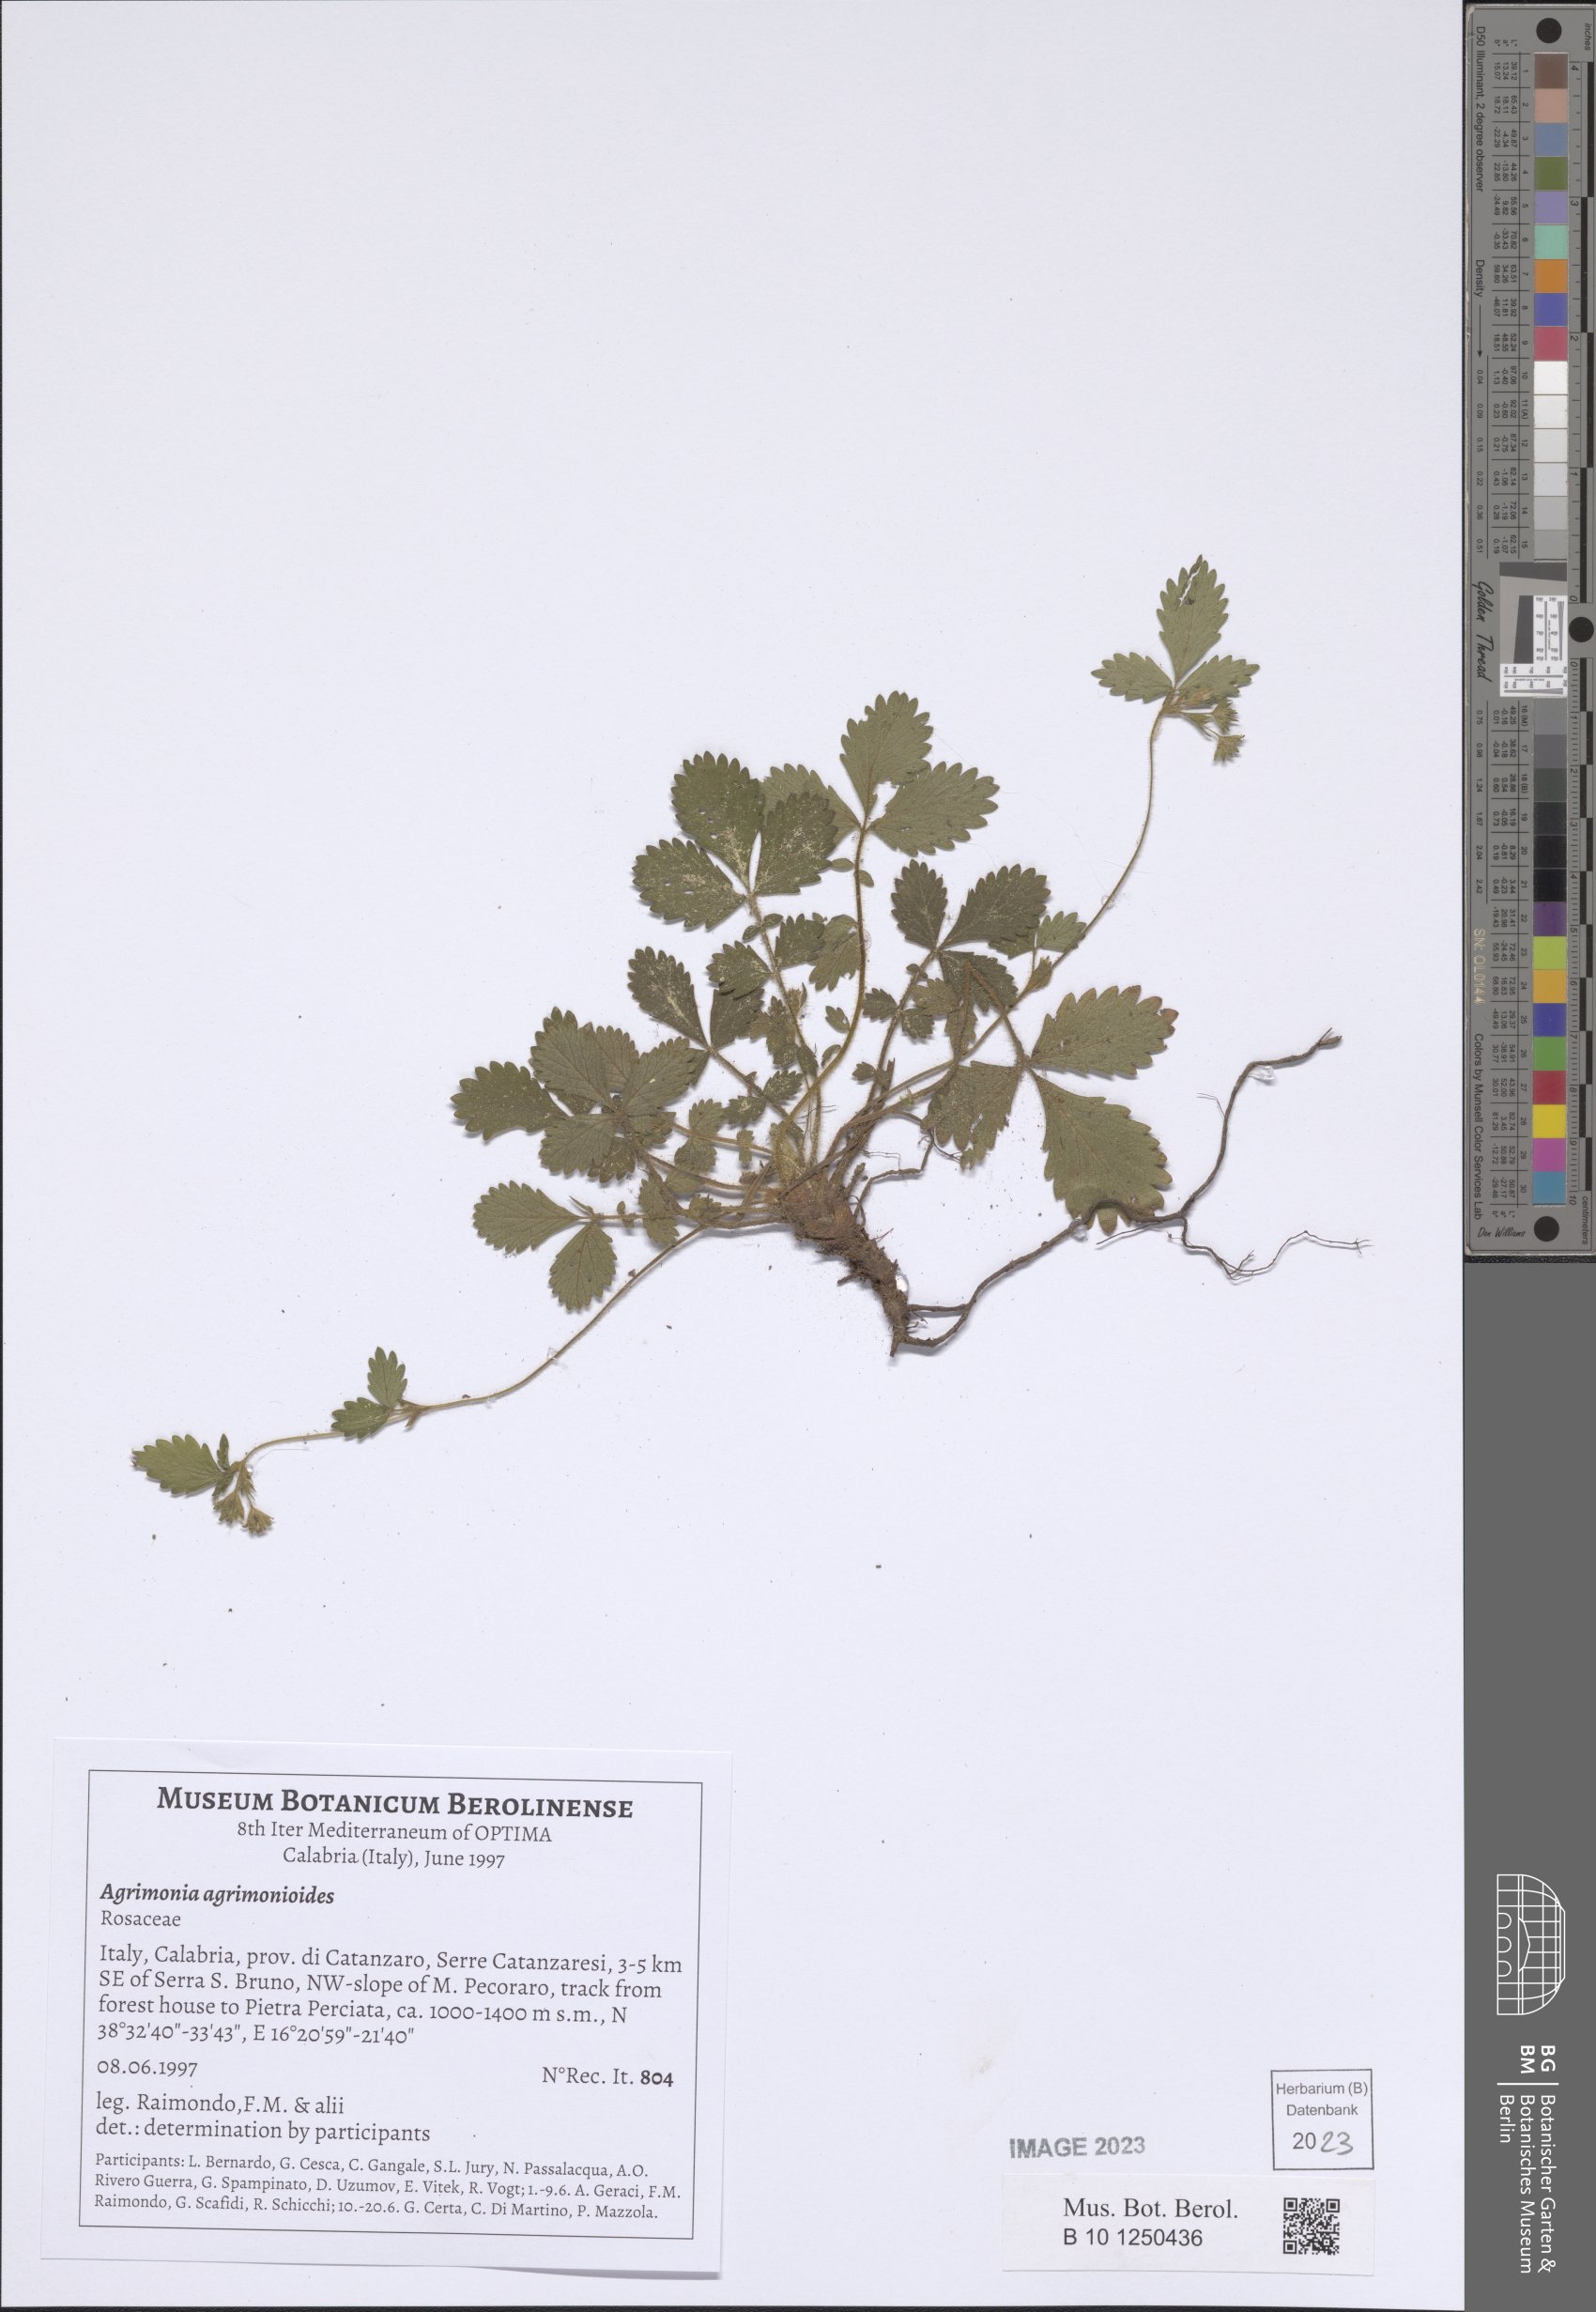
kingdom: Plantae
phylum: Tracheophyta
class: Magnoliopsida
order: Rosales
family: Rosaceae
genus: Aremonia
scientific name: Aremonia agrimonoides
